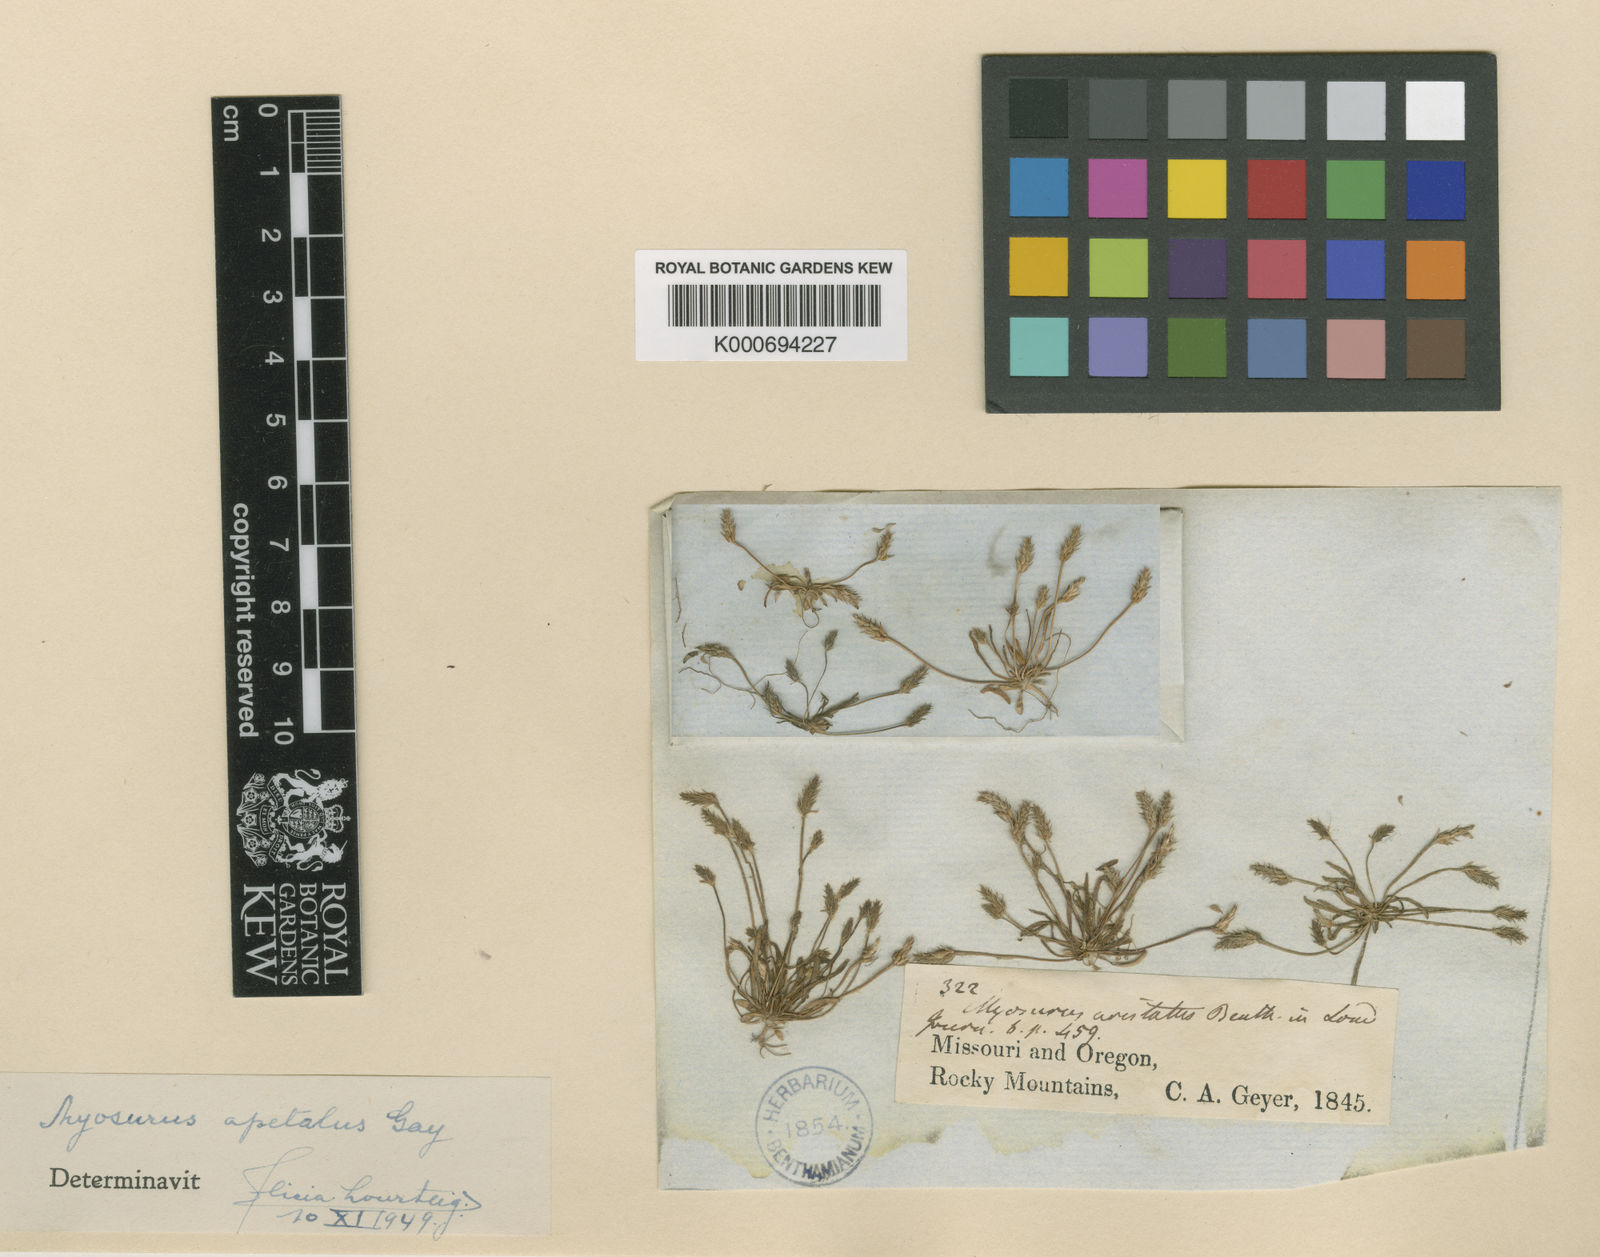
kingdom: Plantae
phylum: Tracheophyta
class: Magnoliopsida
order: Ranunculales
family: Ranunculaceae
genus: Myosurus
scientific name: Myosurus apetalus
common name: Mousetail
